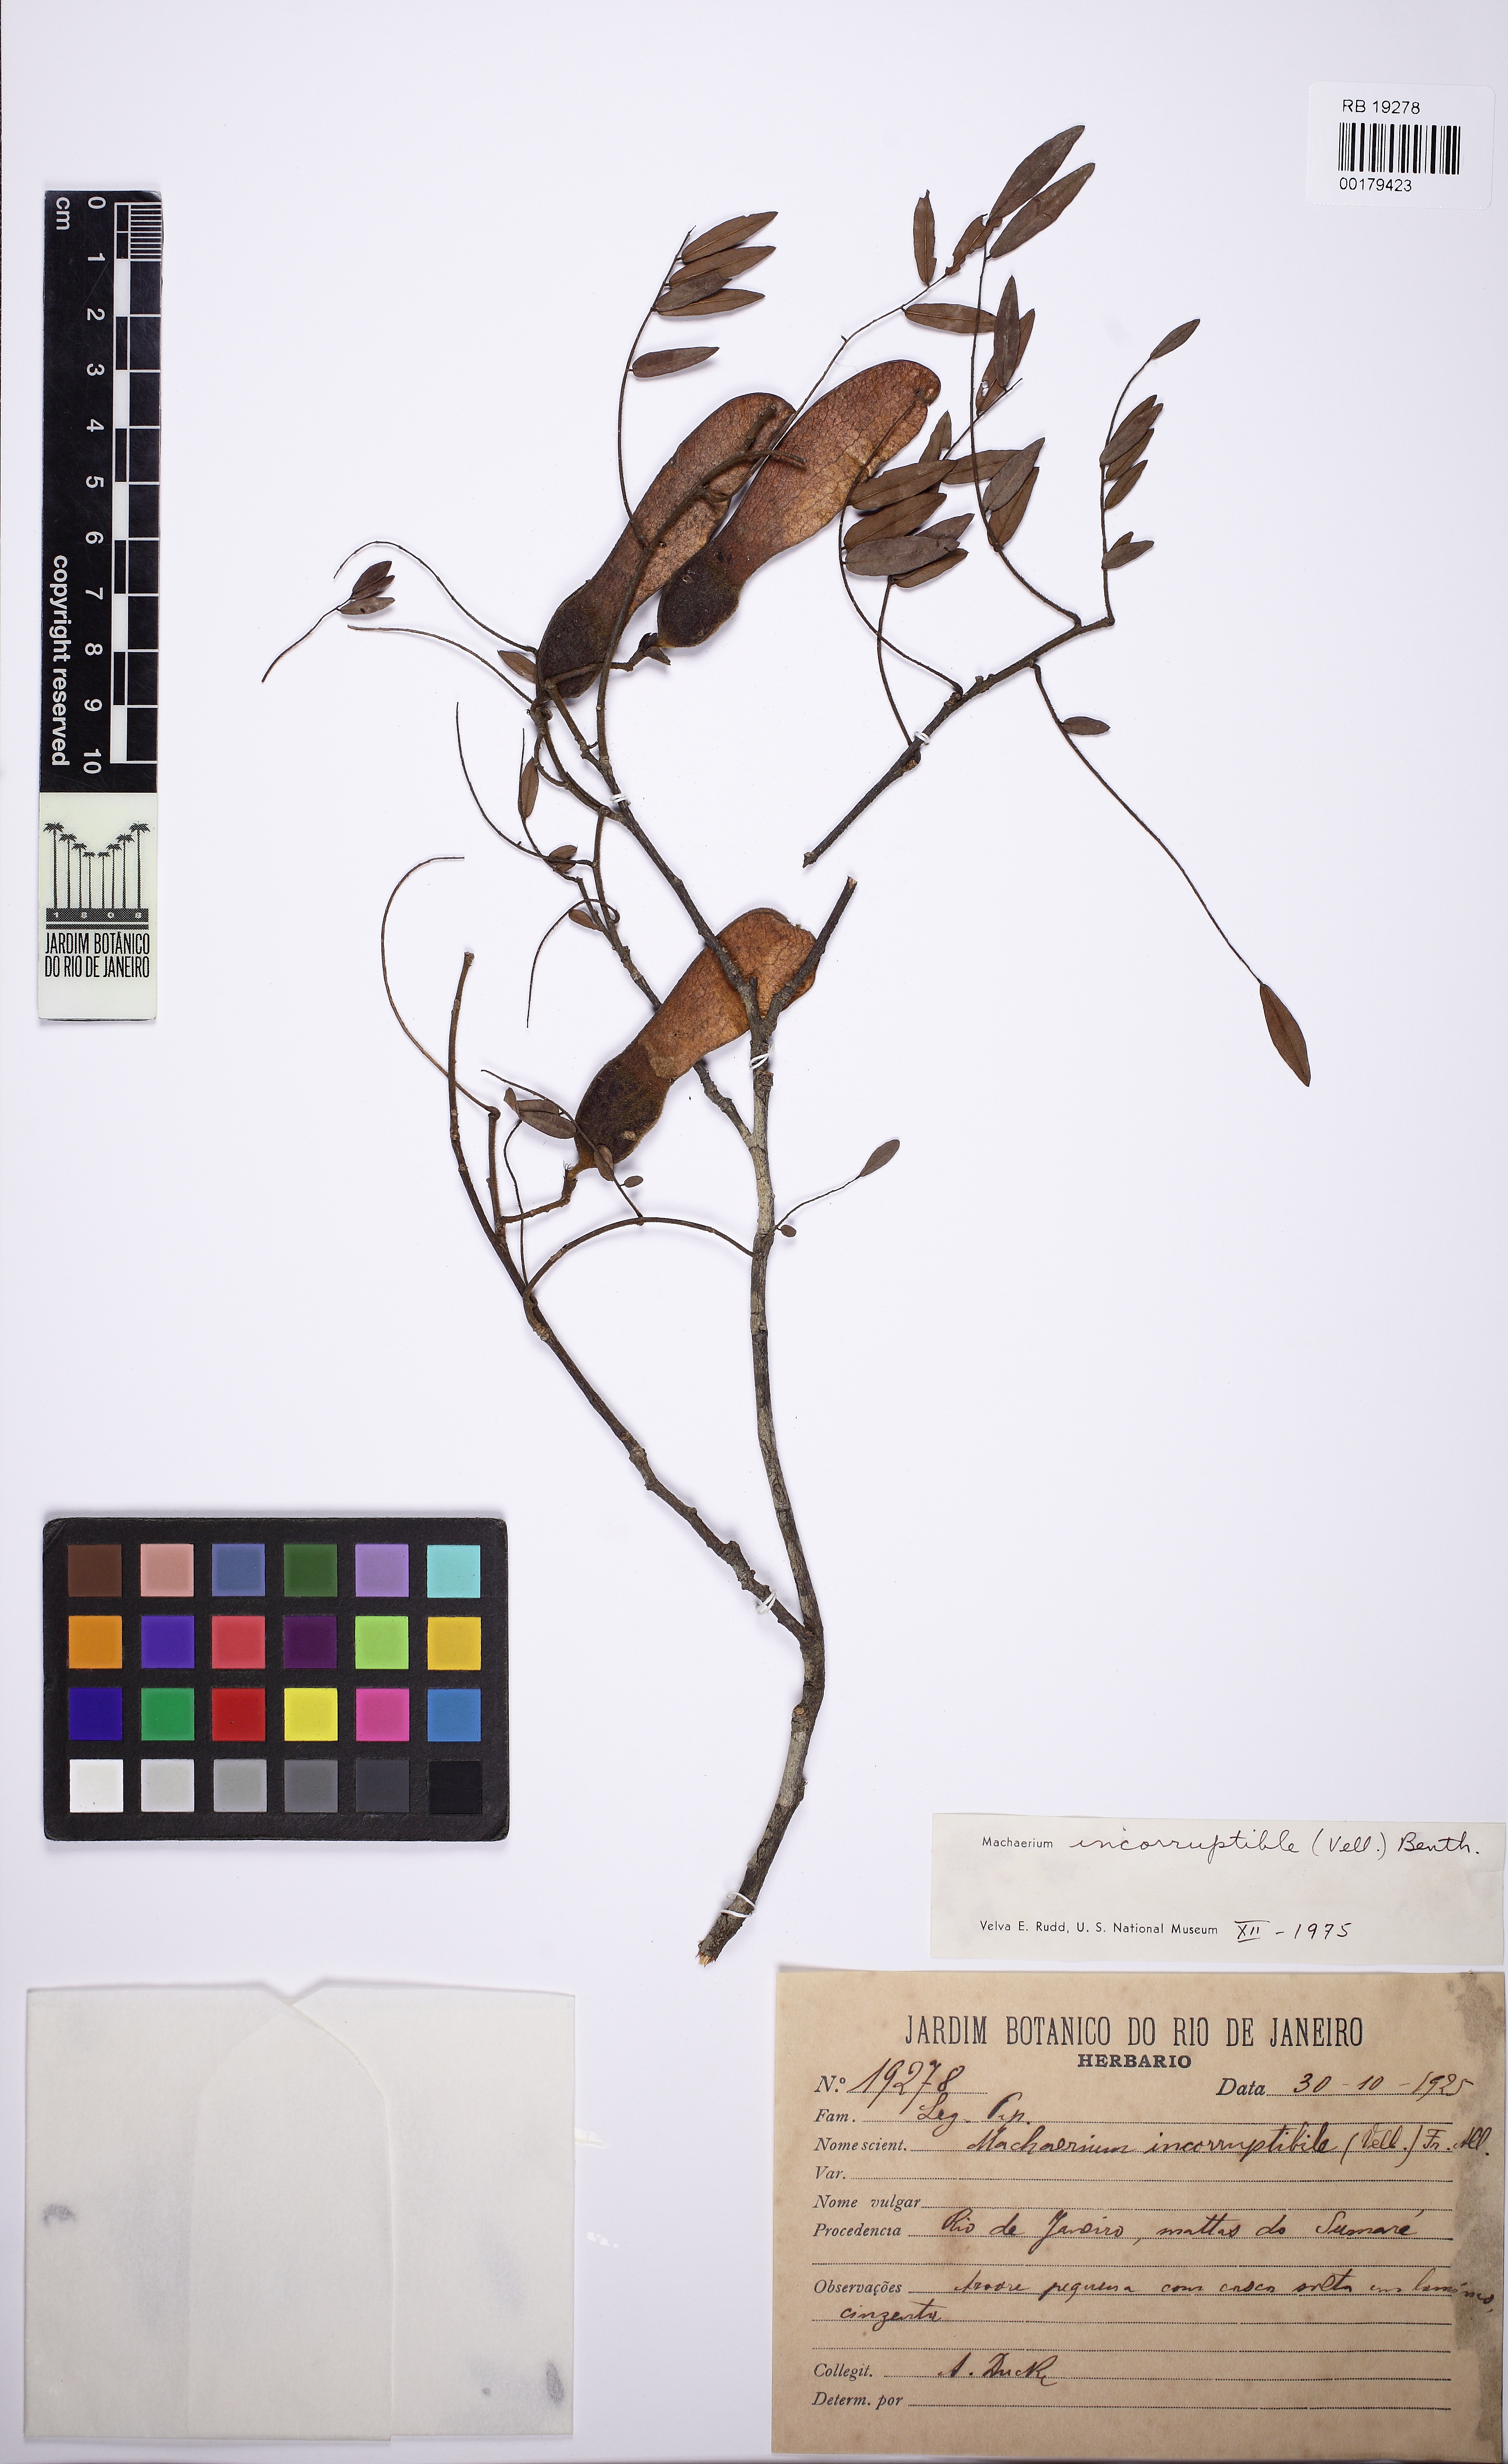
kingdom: Plantae
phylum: Tracheophyta
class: Magnoliopsida
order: Fabales
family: Fabaceae
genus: Machaerium
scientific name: Machaerium incorruptibile
